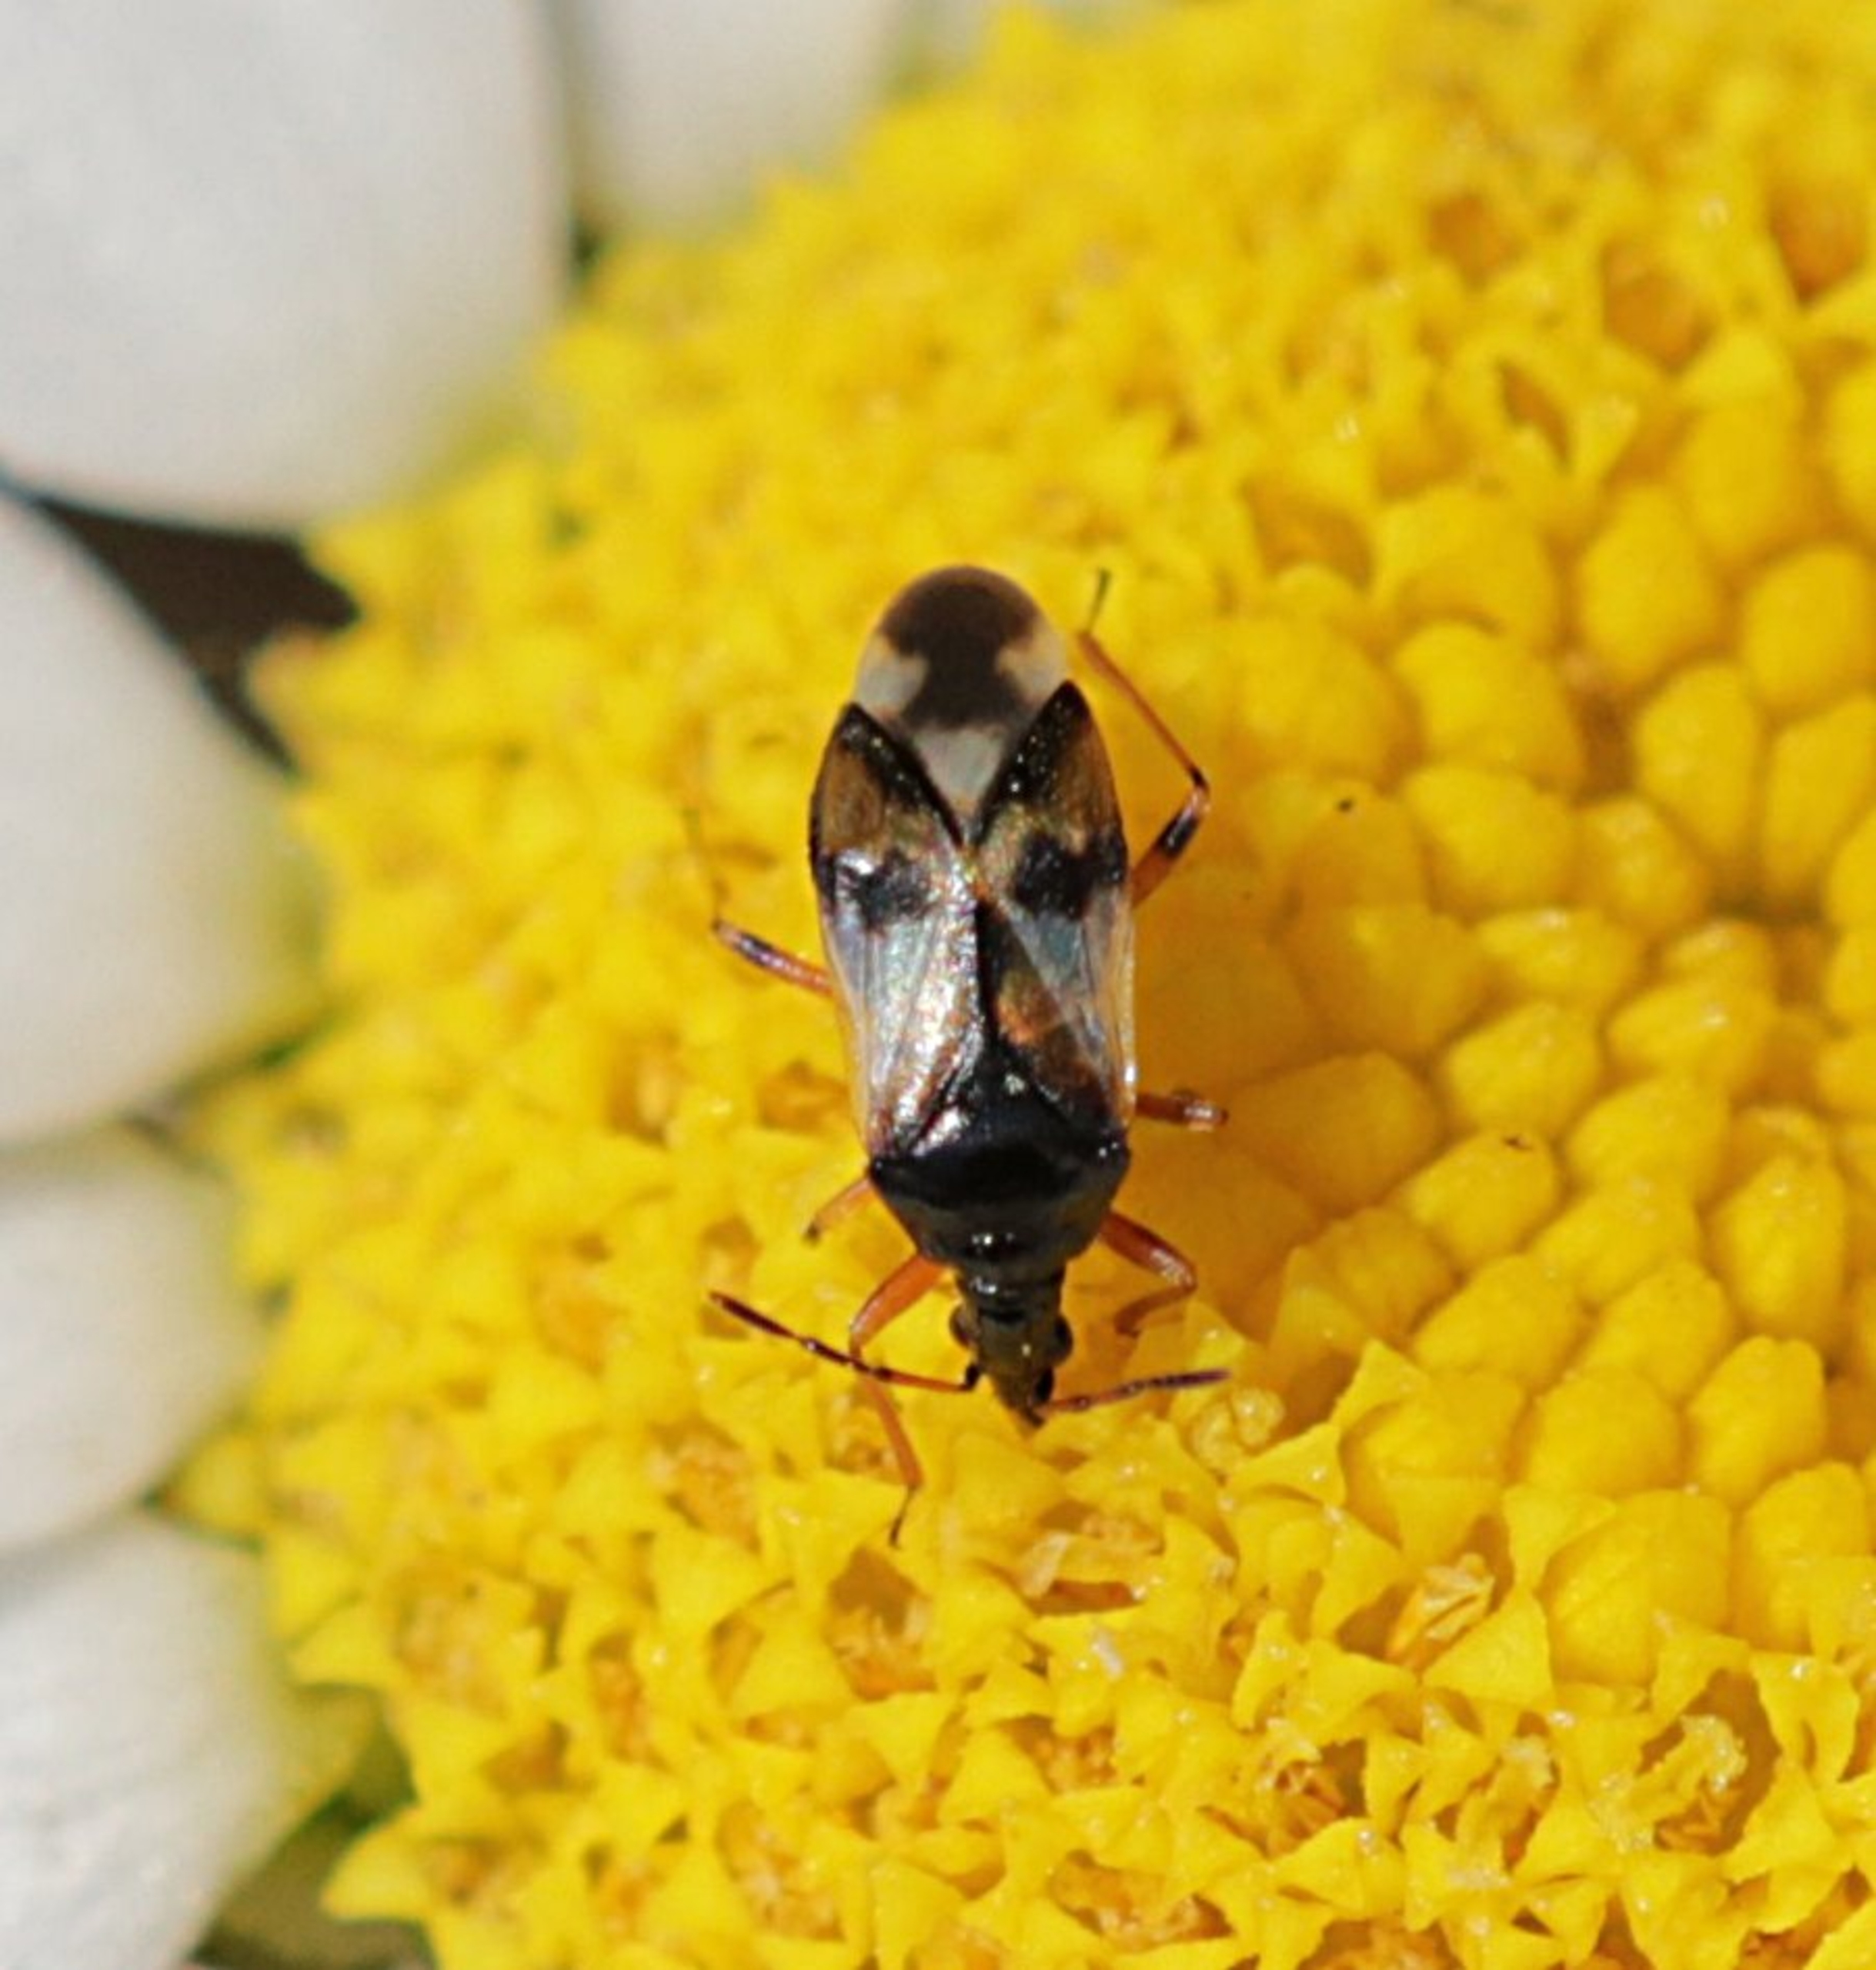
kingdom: Animalia
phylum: Arthropoda
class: Insecta
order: Hemiptera
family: Anthocoridae
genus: Anthocoris
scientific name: Anthocoris nemorum
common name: Skinnende bladlustæge
